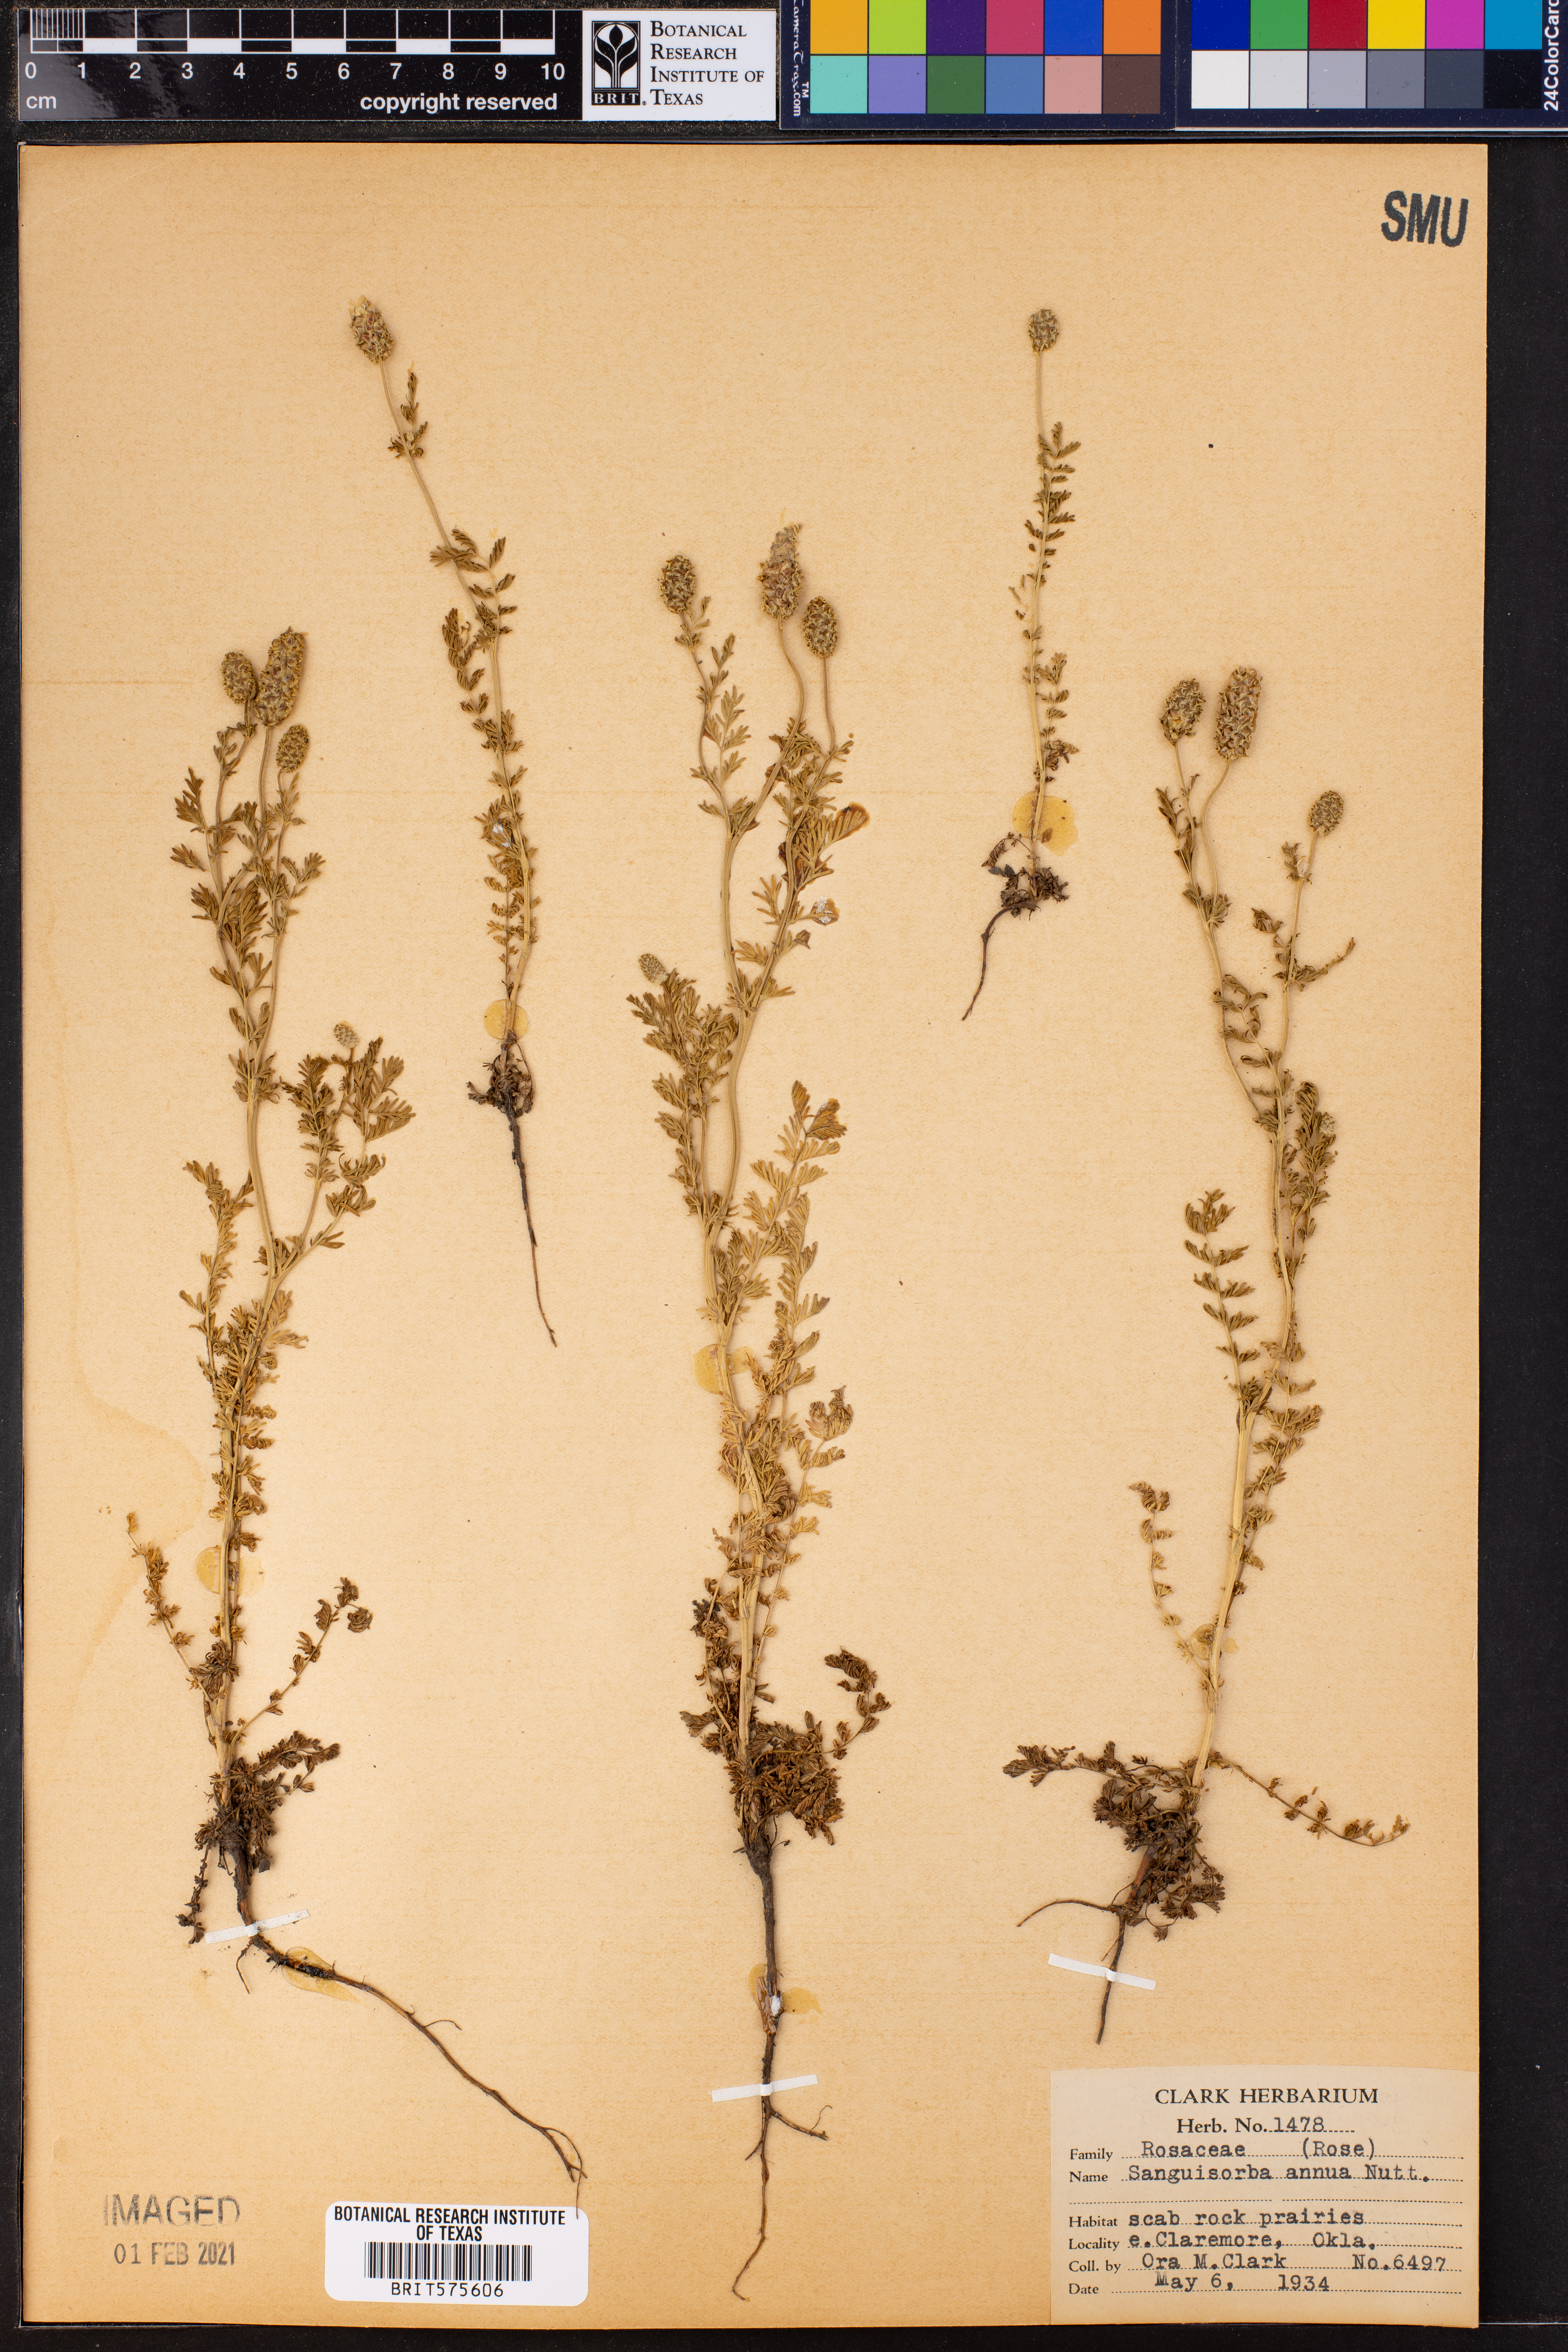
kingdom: Plantae
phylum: Tracheophyta
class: Magnoliopsida
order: Rosales
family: Rosaceae
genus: Poteridium
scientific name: Poteridium annuum
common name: Annual burnet
